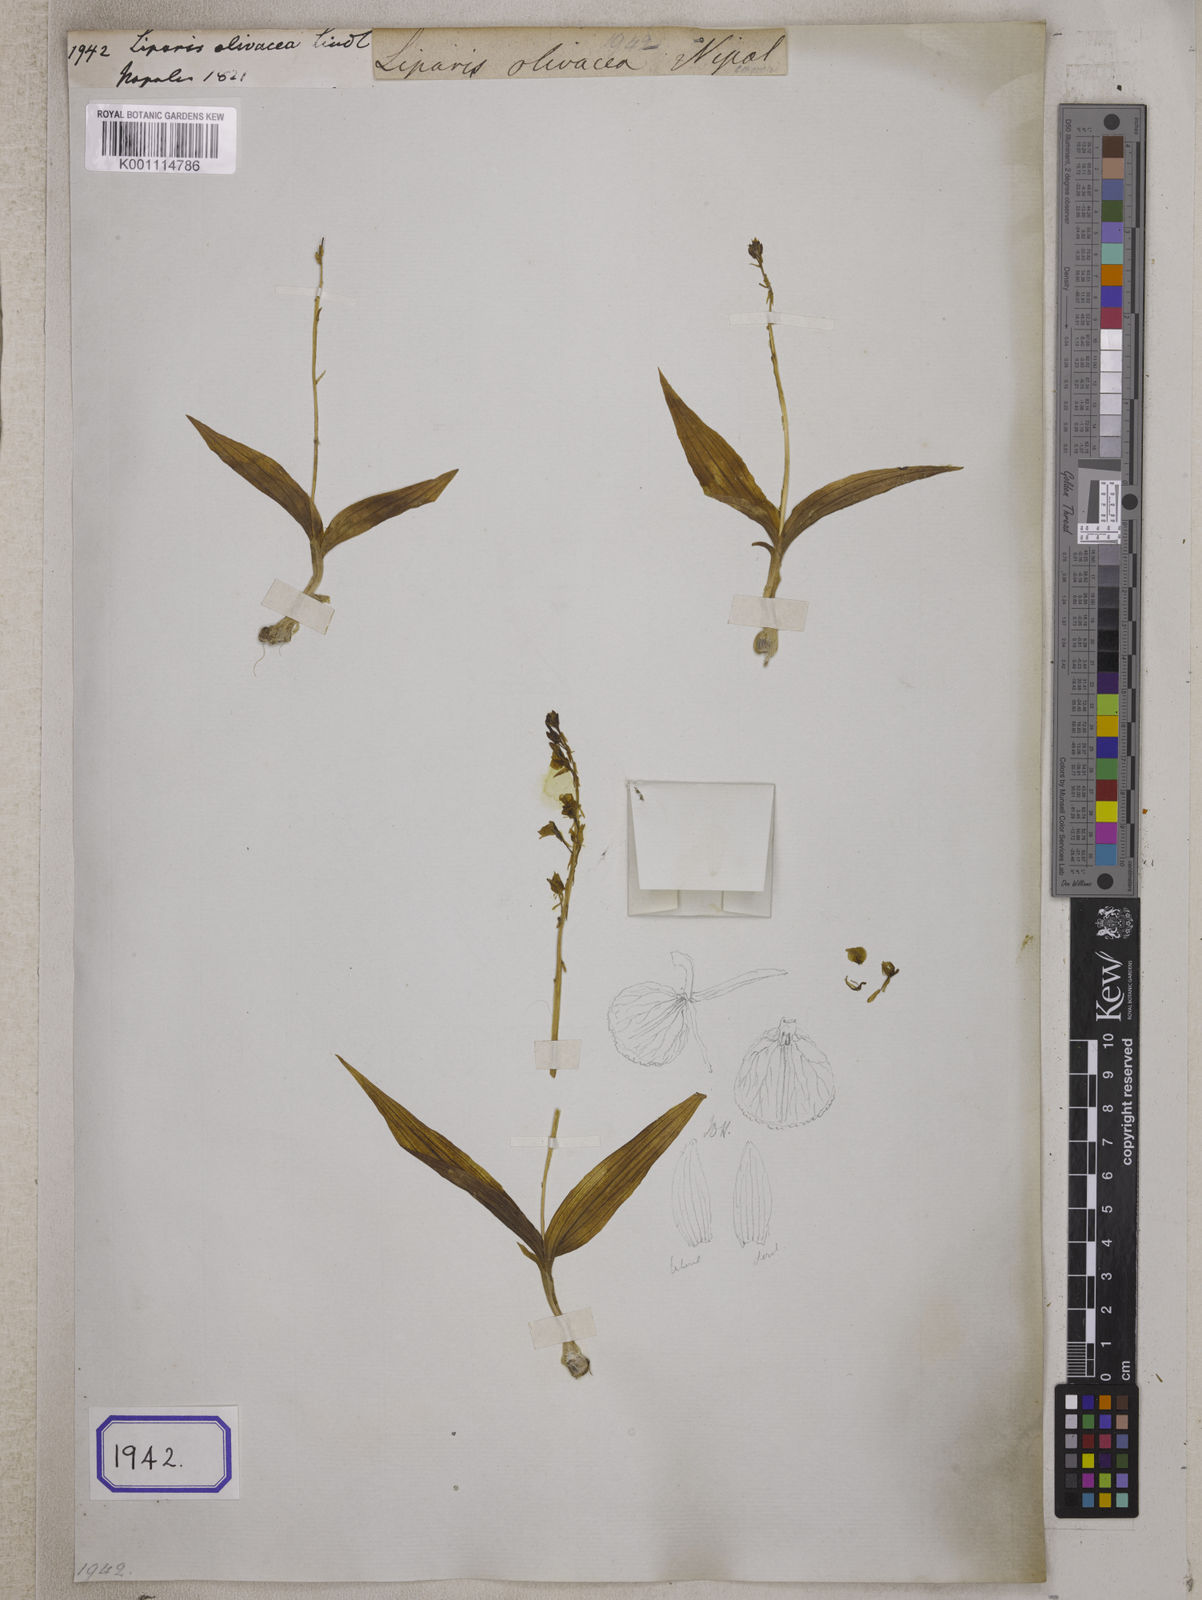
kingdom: Plantae
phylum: Tracheophyta
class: Liliopsida
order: Asparagales
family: Orchidaceae
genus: Liparis
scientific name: Liparis olivacea
